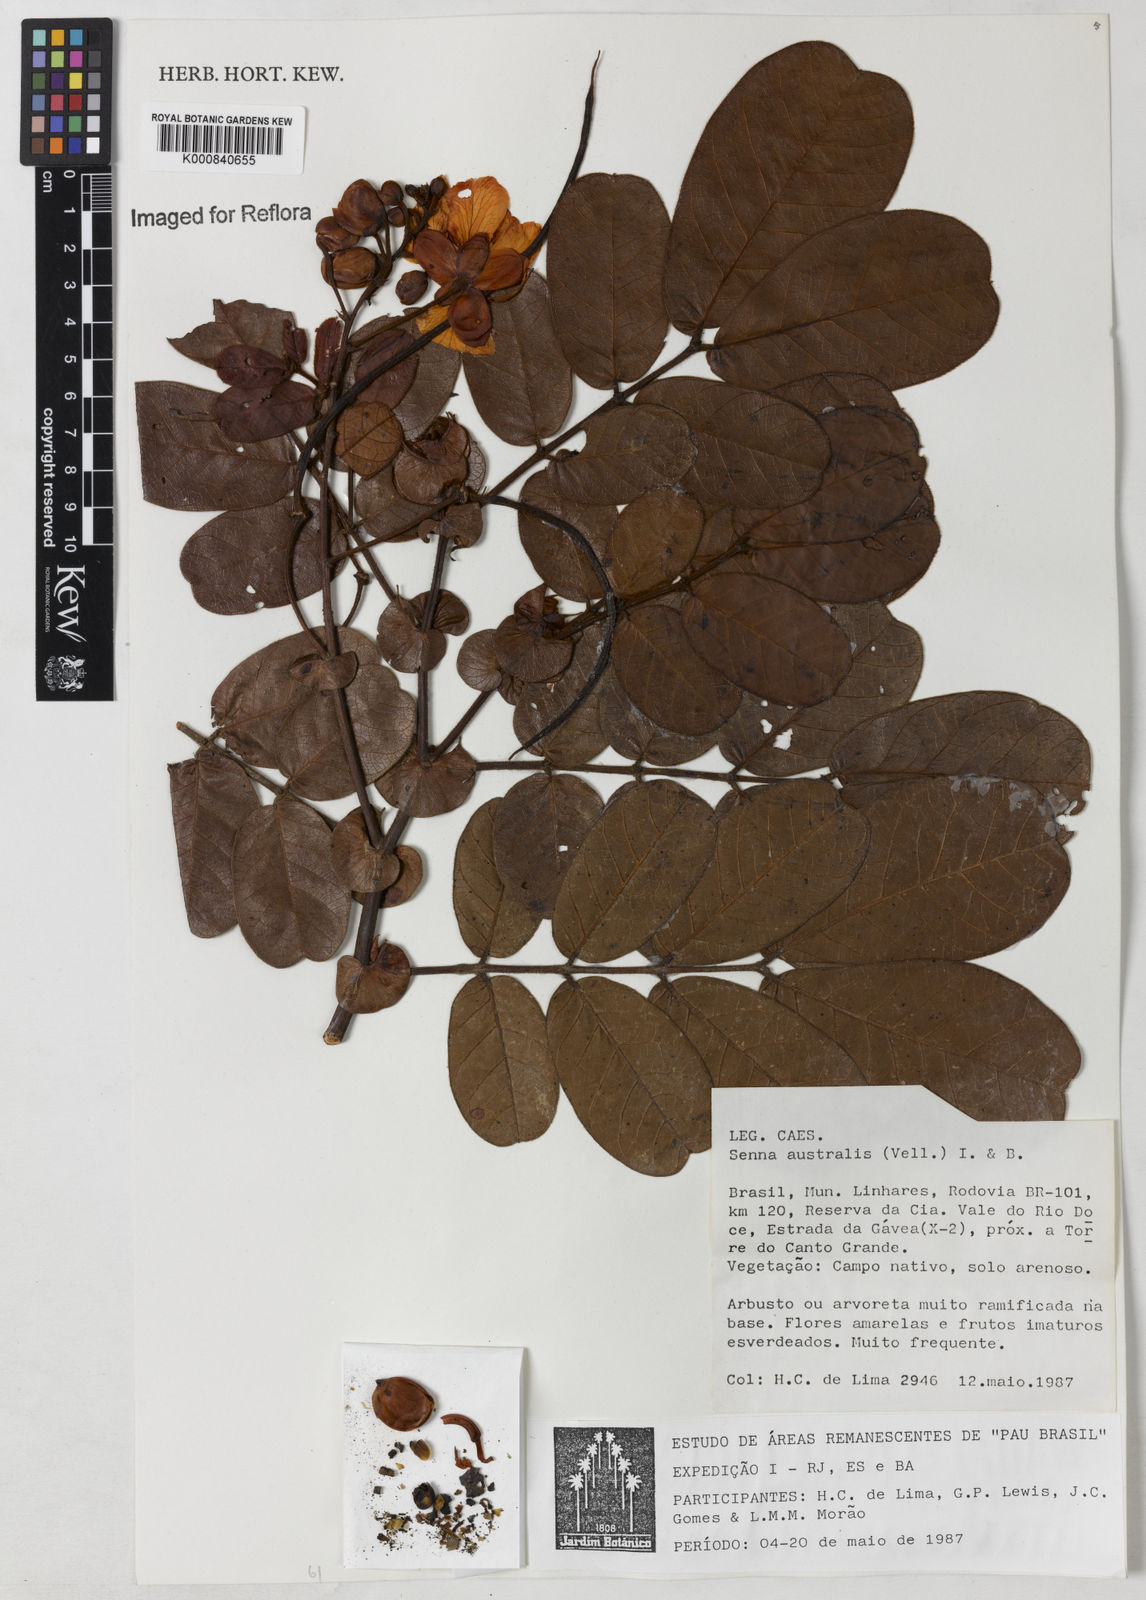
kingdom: Plantae
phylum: Tracheophyta
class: Magnoliopsida
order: Fabales
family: Fabaceae
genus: Senna
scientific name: Senna appendiculata
